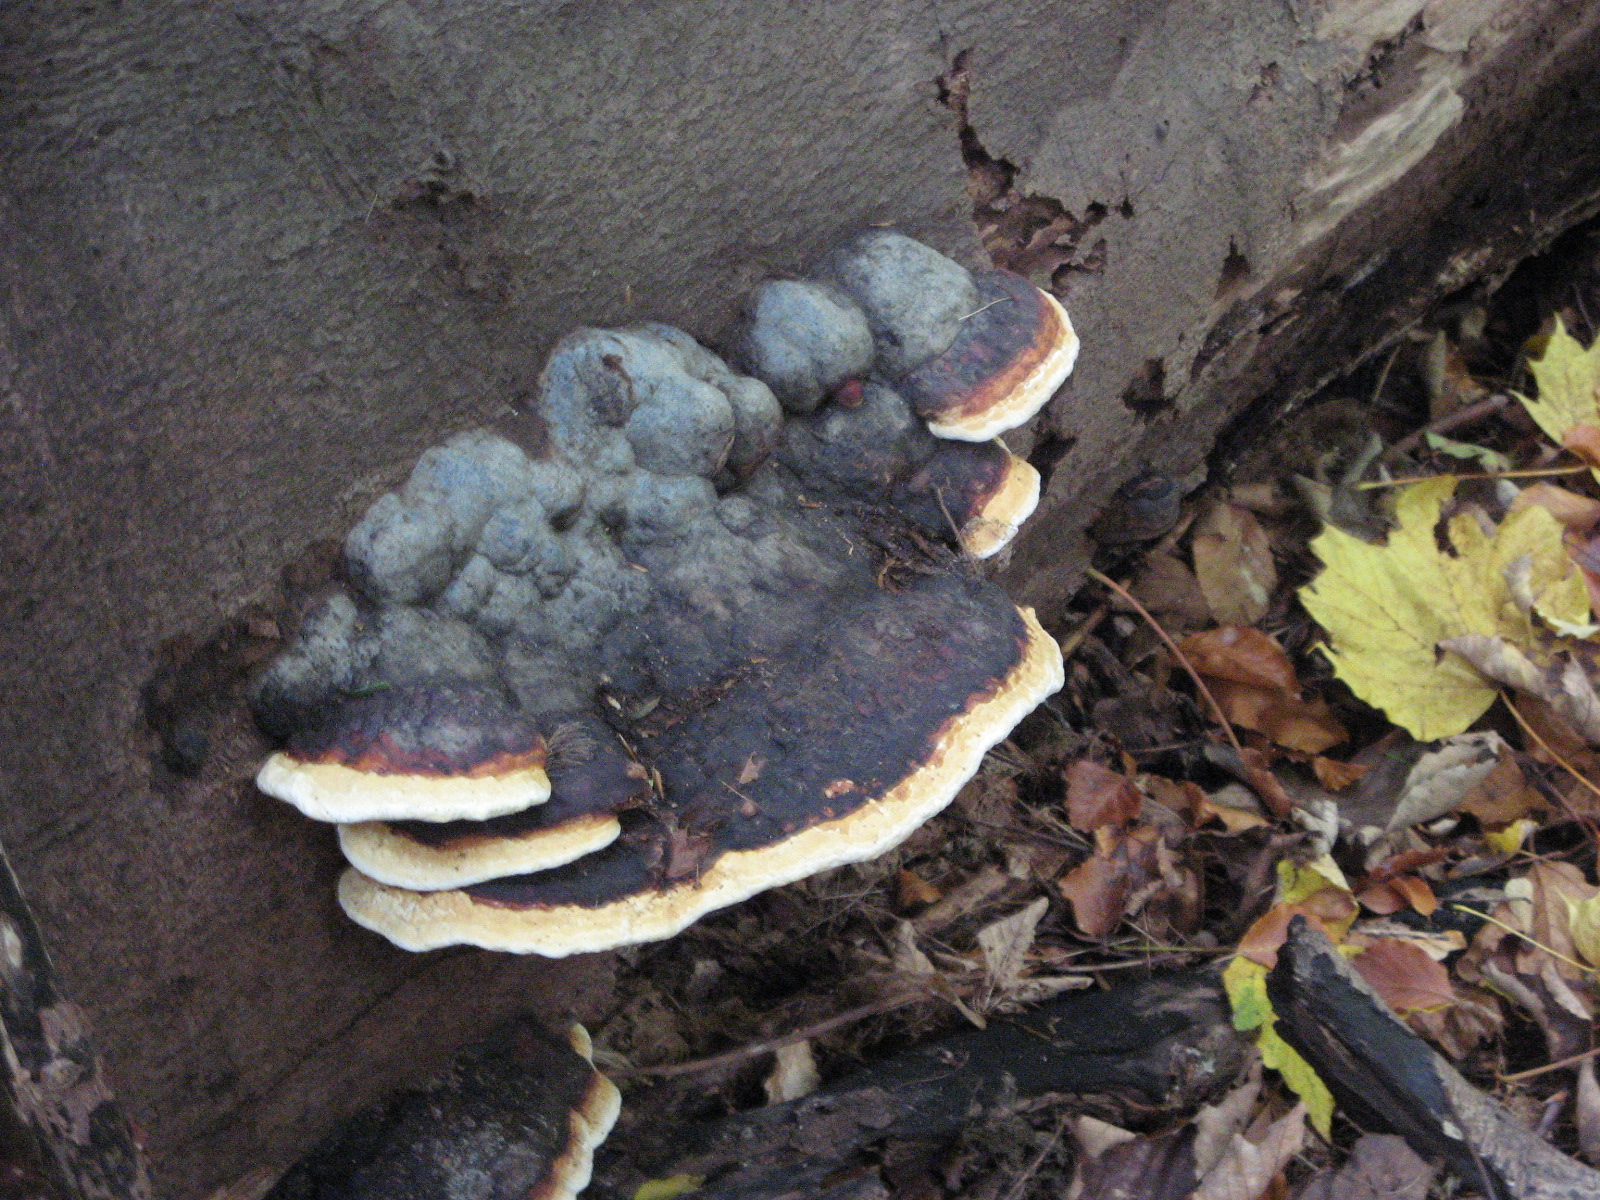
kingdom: Fungi
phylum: Basidiomycota
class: Agaricomycetes
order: Polyporales
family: Fomitopsidaceae
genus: Fomitopsis
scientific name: Fomitopsis pinicola
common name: randbæltet hovporesvamp
